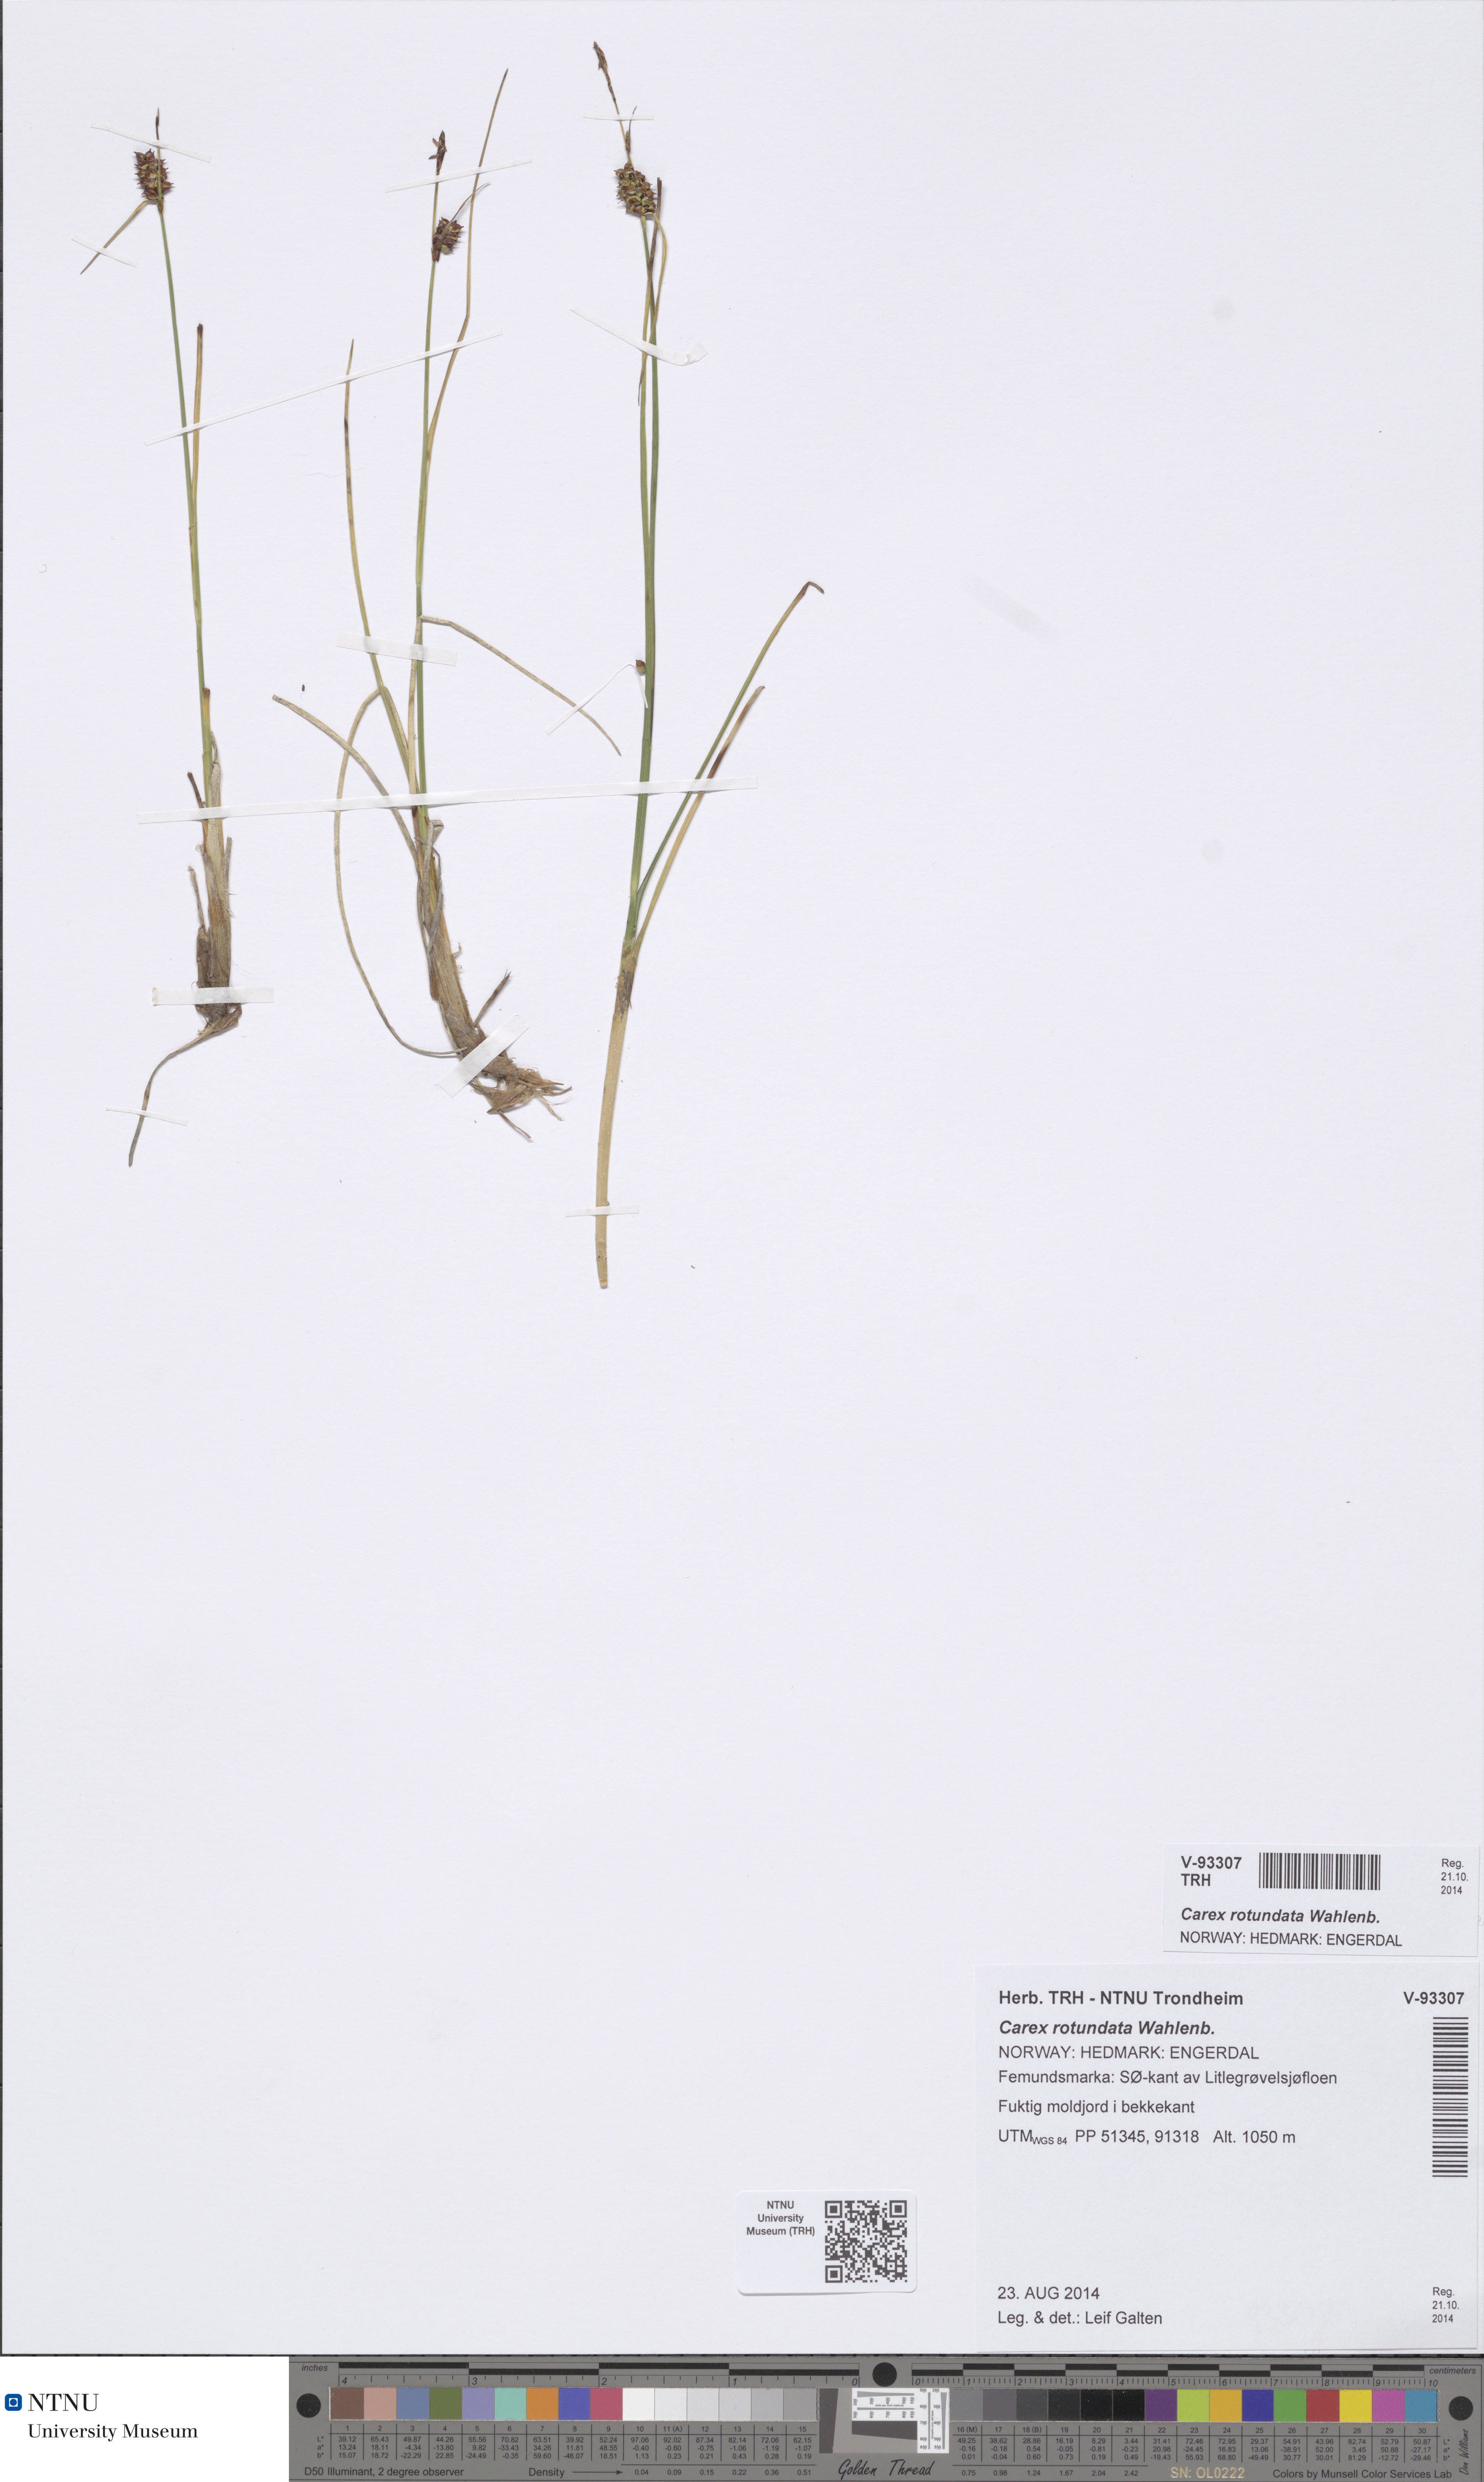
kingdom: Plantae
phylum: Tracheophyta
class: Liliopsida
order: Poales
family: Cyperaceae
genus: Carex
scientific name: Carex rotundata
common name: Round-fruited sedge
